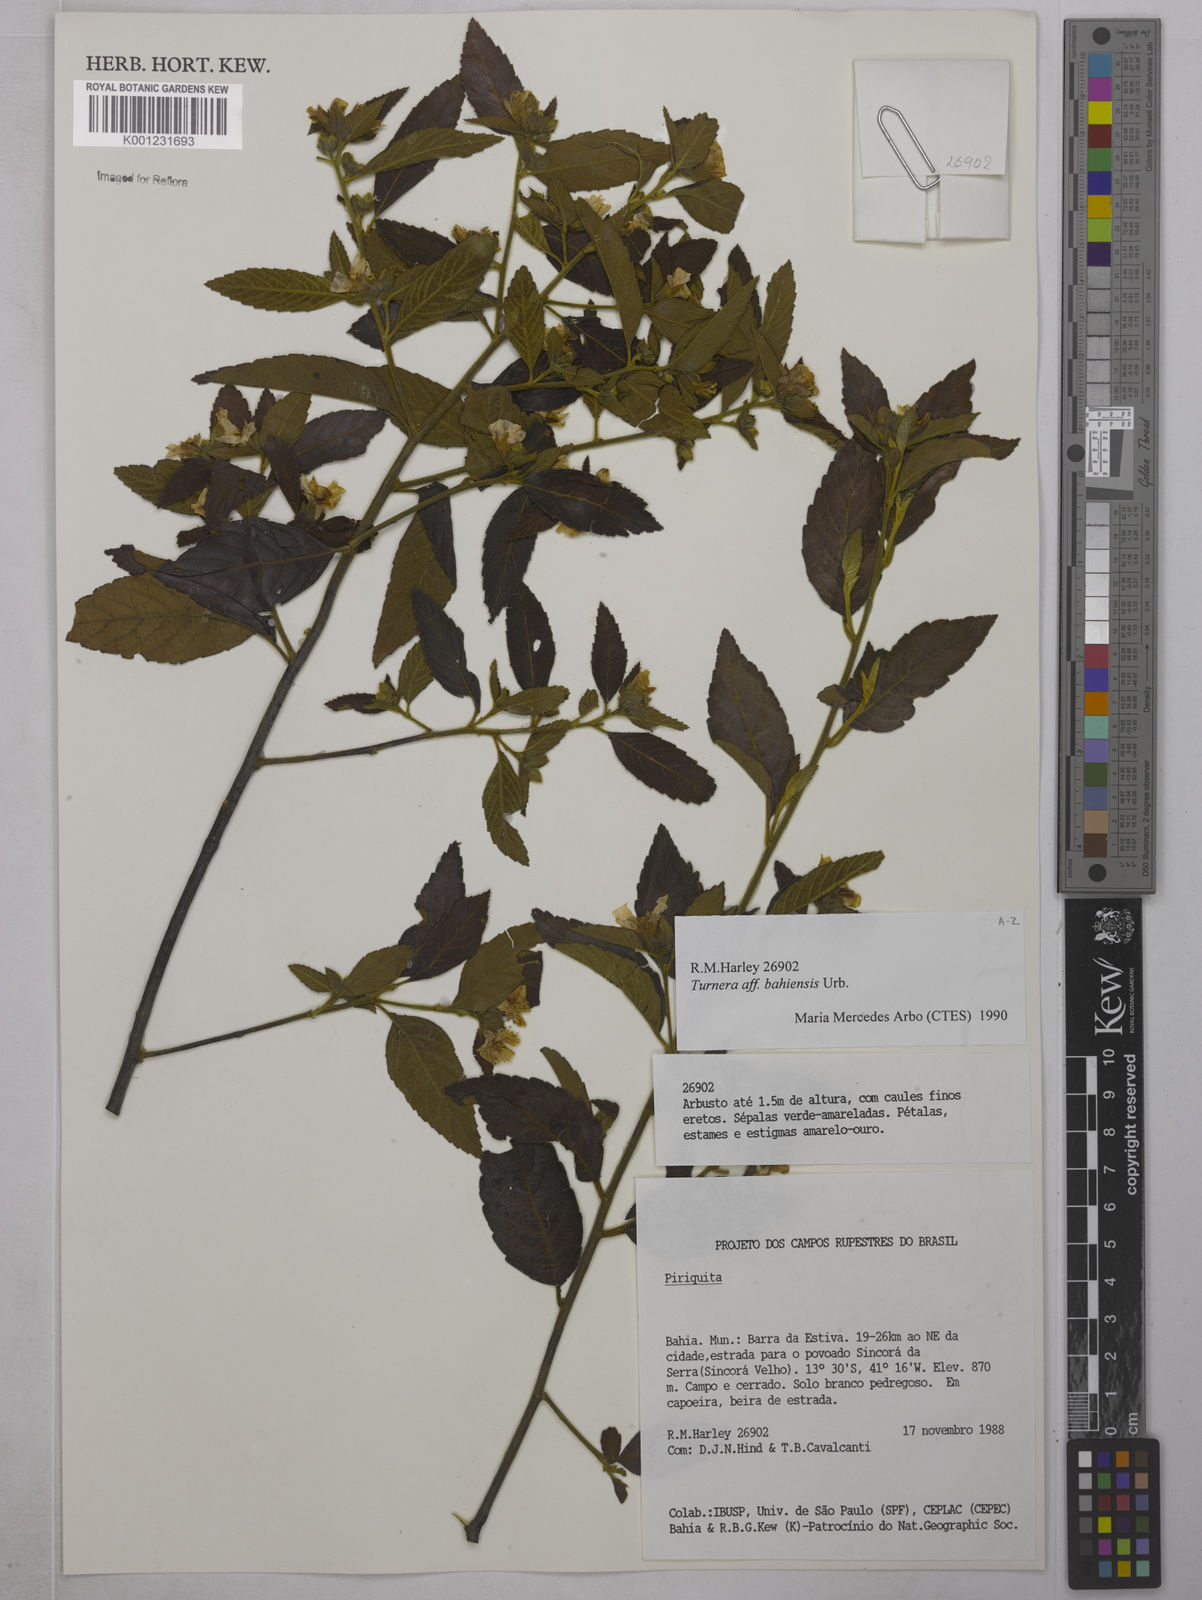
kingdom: Plantae
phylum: Tracheophyta
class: Magnoliopsida
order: Malpighiales
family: Turneraceae
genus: Turnera
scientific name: Turnera bahiensis
